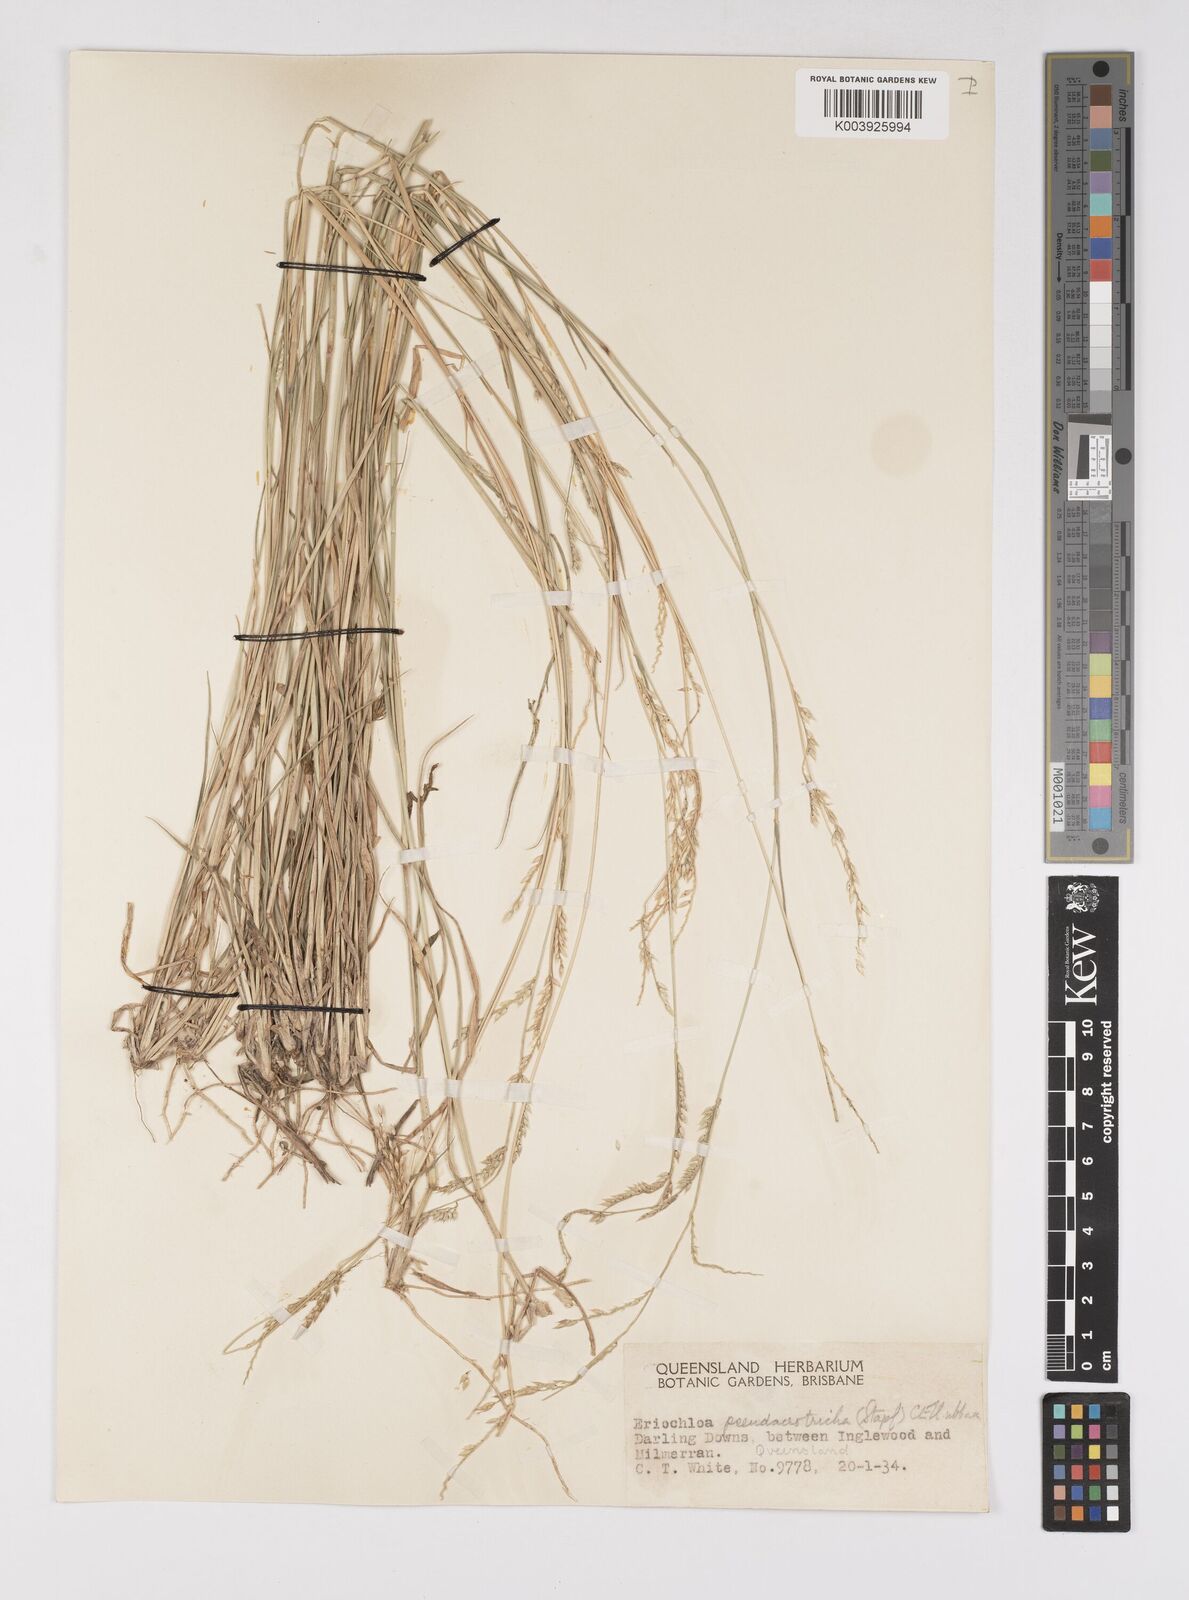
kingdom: Plantae
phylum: Tracheophyta
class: Liliopsida
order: Poales
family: Poaceae
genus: Eriochloa
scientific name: Eriochloa pseudoacrotricha
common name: Perennial cup-grass
